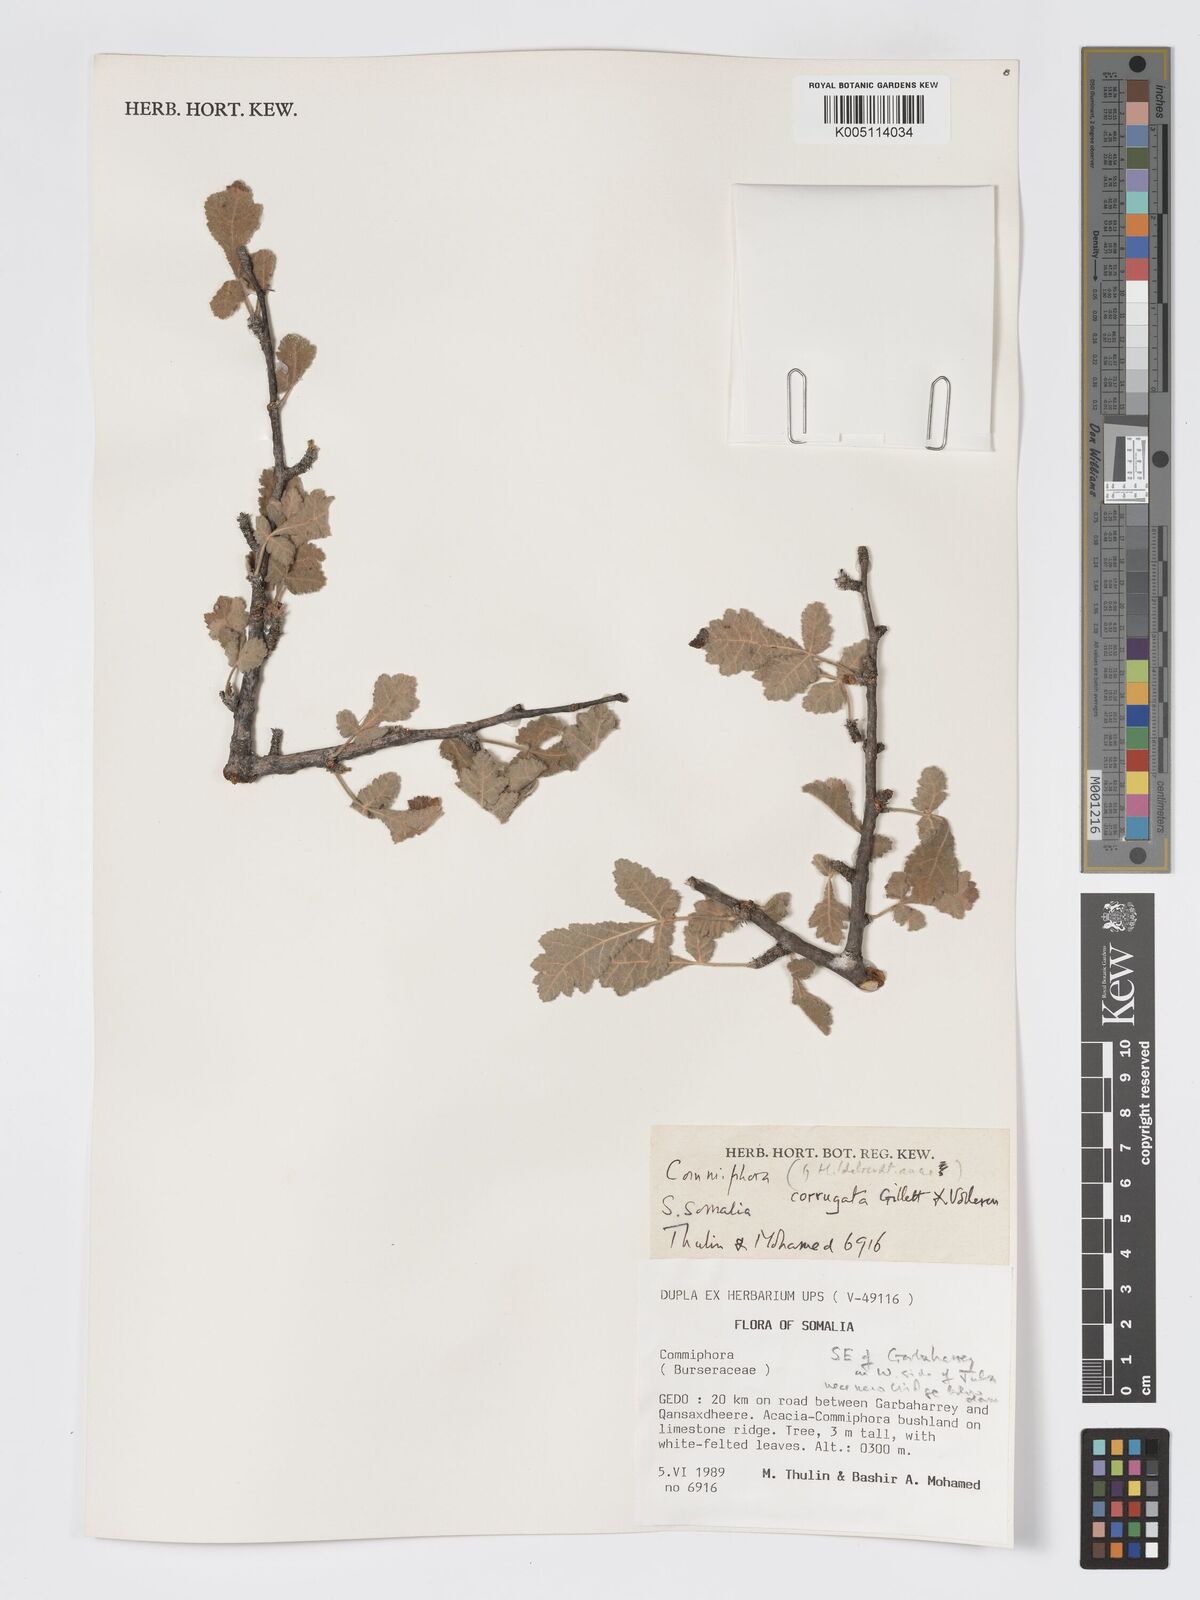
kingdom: Plantae
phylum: Tracheophyta
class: Magnoliopsida
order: Sapindales
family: Burseraceae
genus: Commiphora
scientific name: Commiphora corrugata
